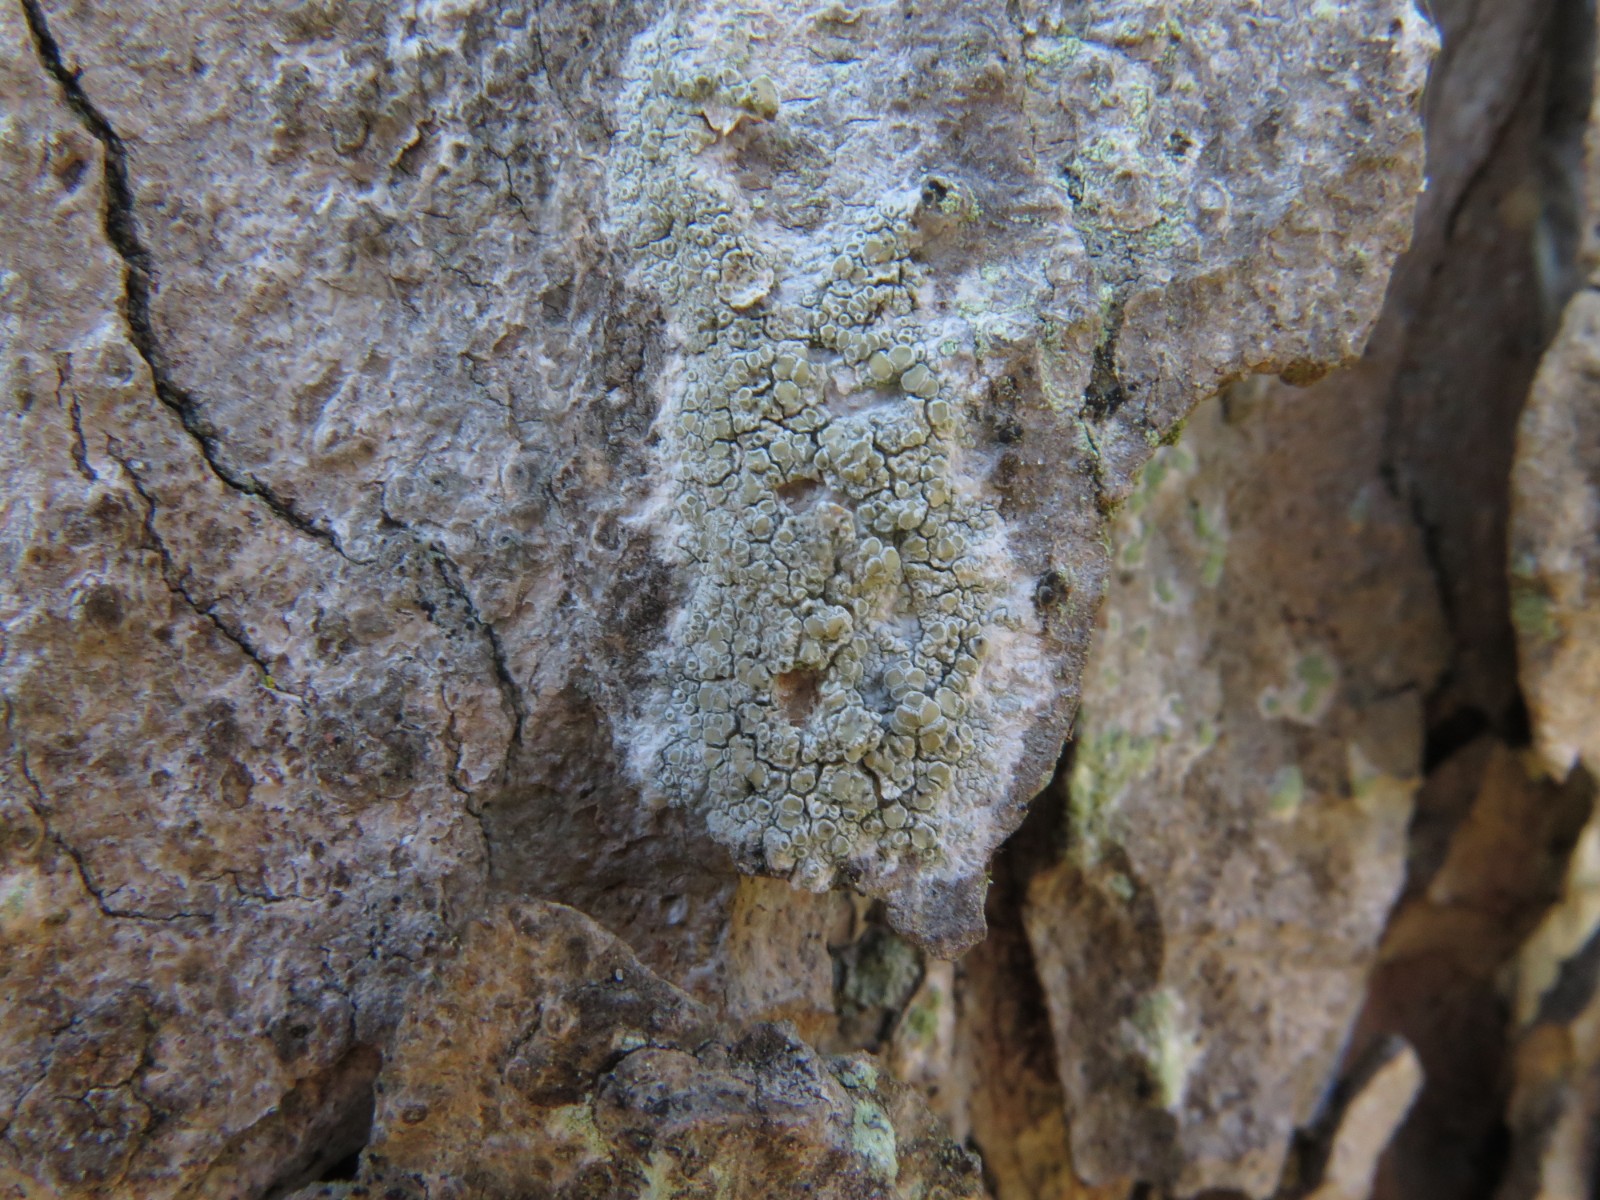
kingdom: Fungi
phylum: Ascomycota
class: Lecanoromycetes
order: Lecanorales
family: Lecanoraceae
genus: Lecanora
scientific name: Lecanora chlarotera
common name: brun kantskivelav
